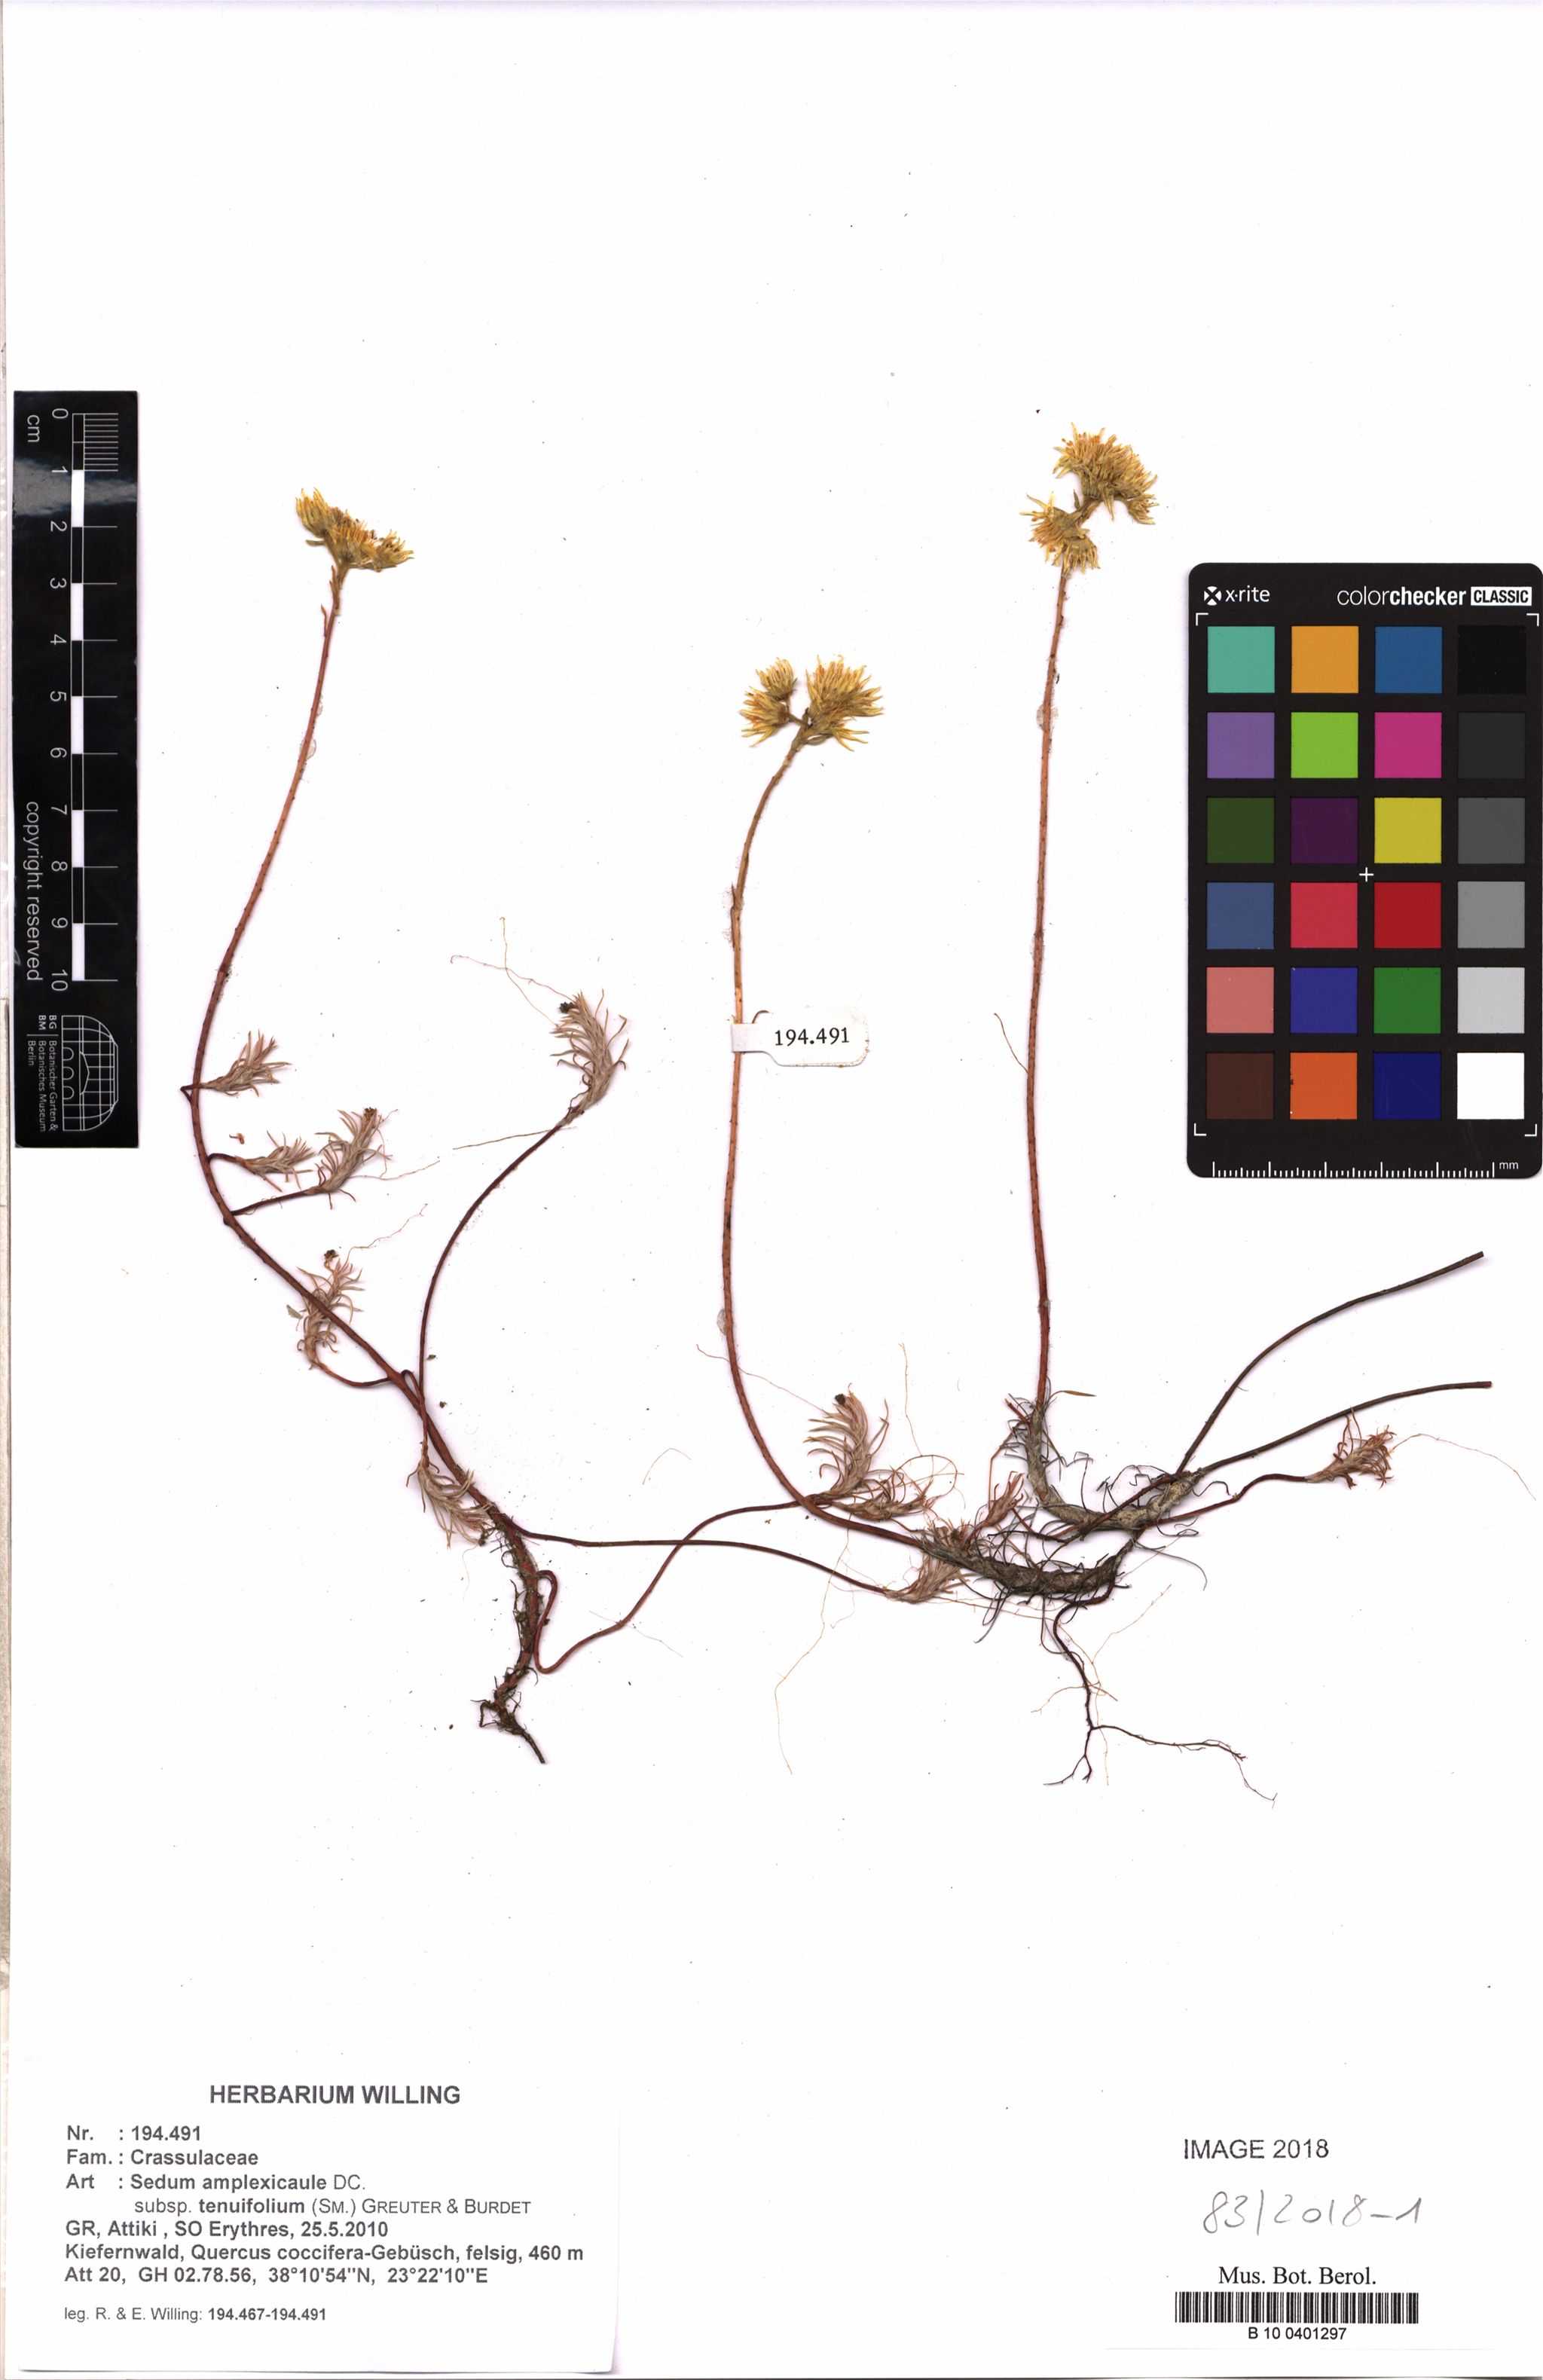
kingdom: Plantae
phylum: Tracheophyta
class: Magnoliopsida
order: Saxifragales
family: Crassulaceae
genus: Petrosedum
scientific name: Petrosedum tenuifolium
